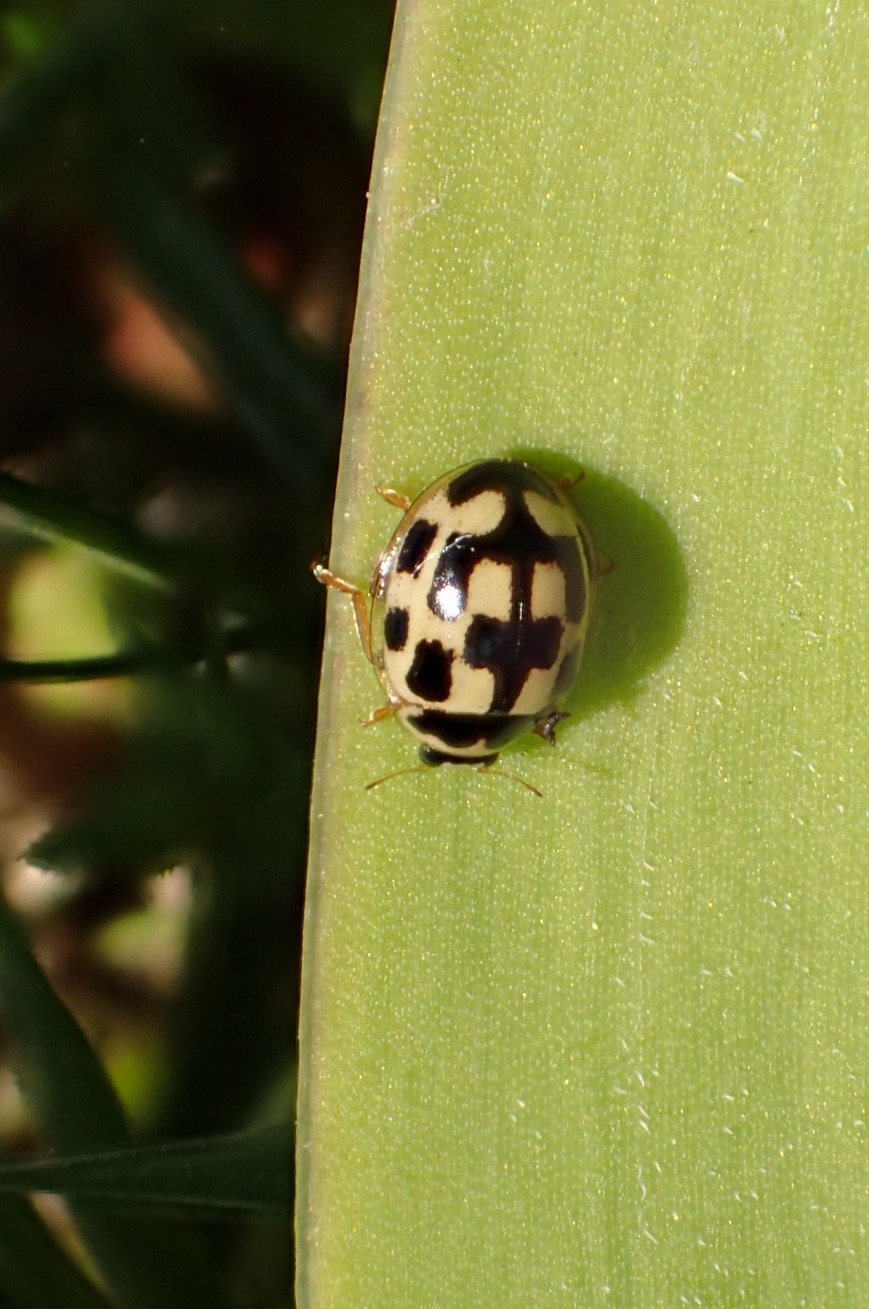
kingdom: Animalia
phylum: Arthropoda
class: Insecta
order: Coleoptera
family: Coccinellidae
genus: Propylaea
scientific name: Propylaea quatuordecimpunctata
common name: Skakbræt
